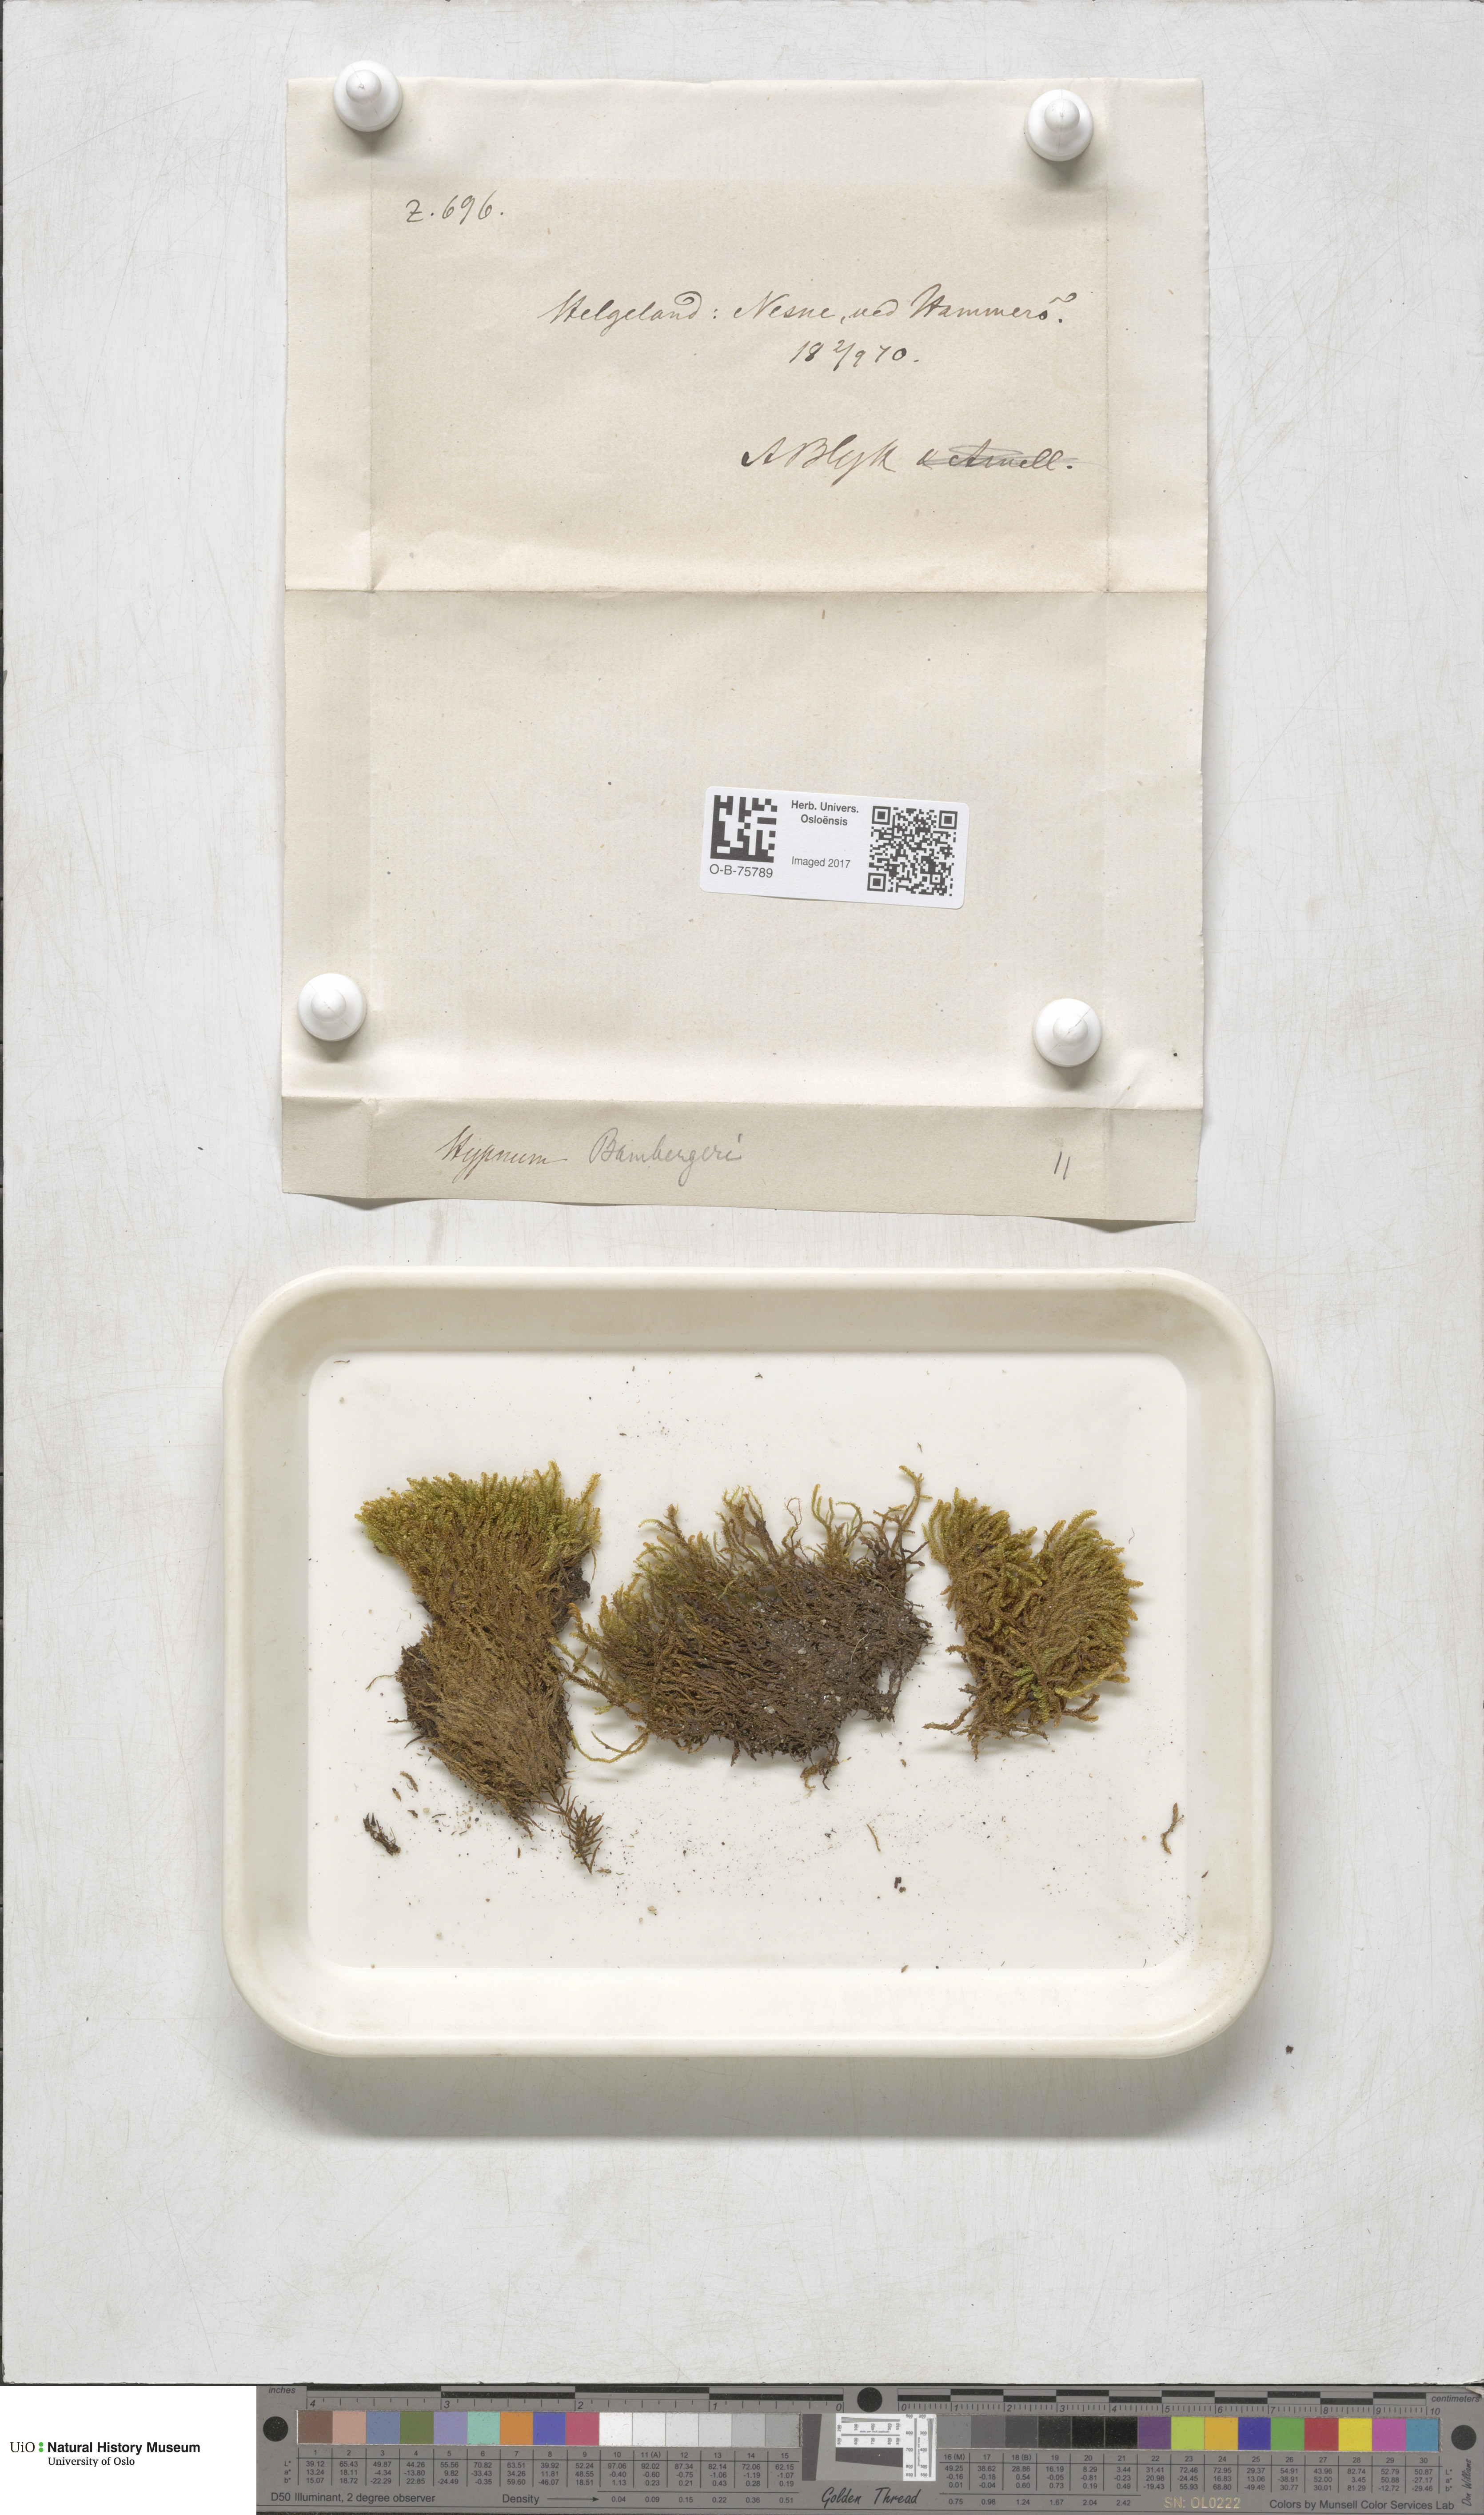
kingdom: Plantae
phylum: Bryophyta
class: Bryopsida
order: Hypnales
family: Amblystegiaceae
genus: Campylium
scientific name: Campylium bambergeri
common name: Golden plait-moss
